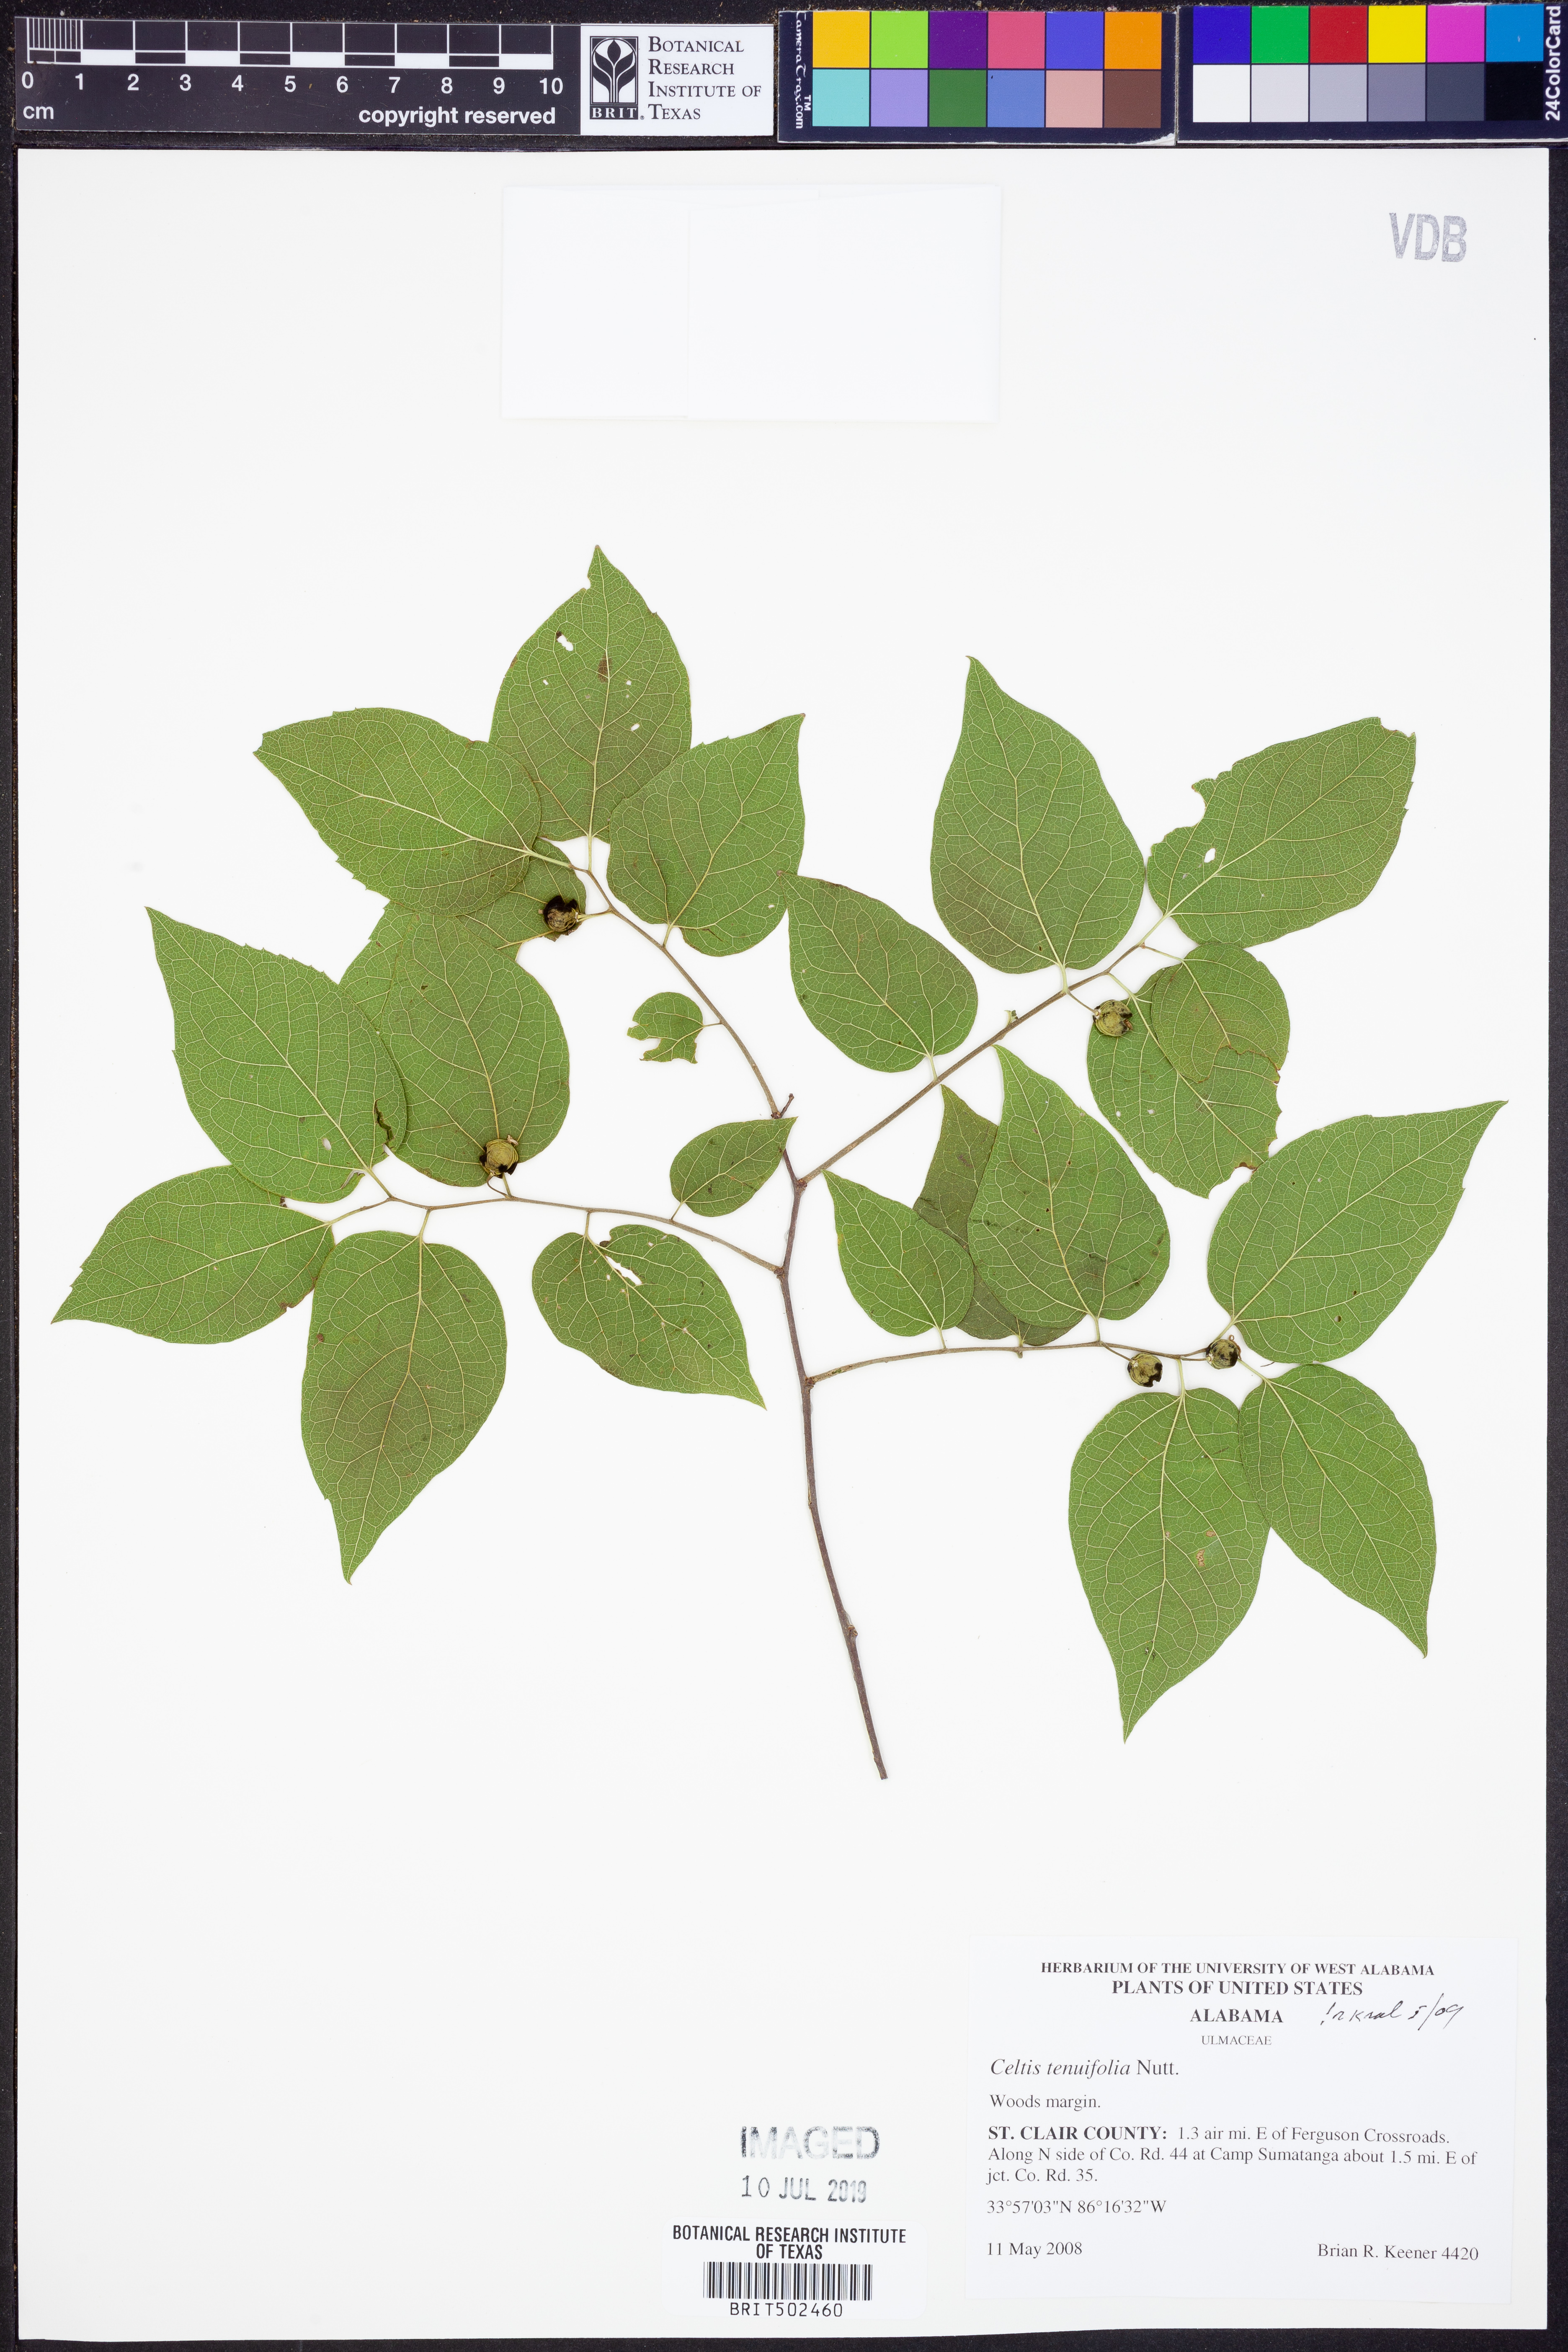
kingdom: Plantae
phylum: Tracheophyta
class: Magnoliopsida
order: Rosales
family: Cannabaceae
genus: Celtis
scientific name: Celtis tenuifolia
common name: Georgia hackberry
